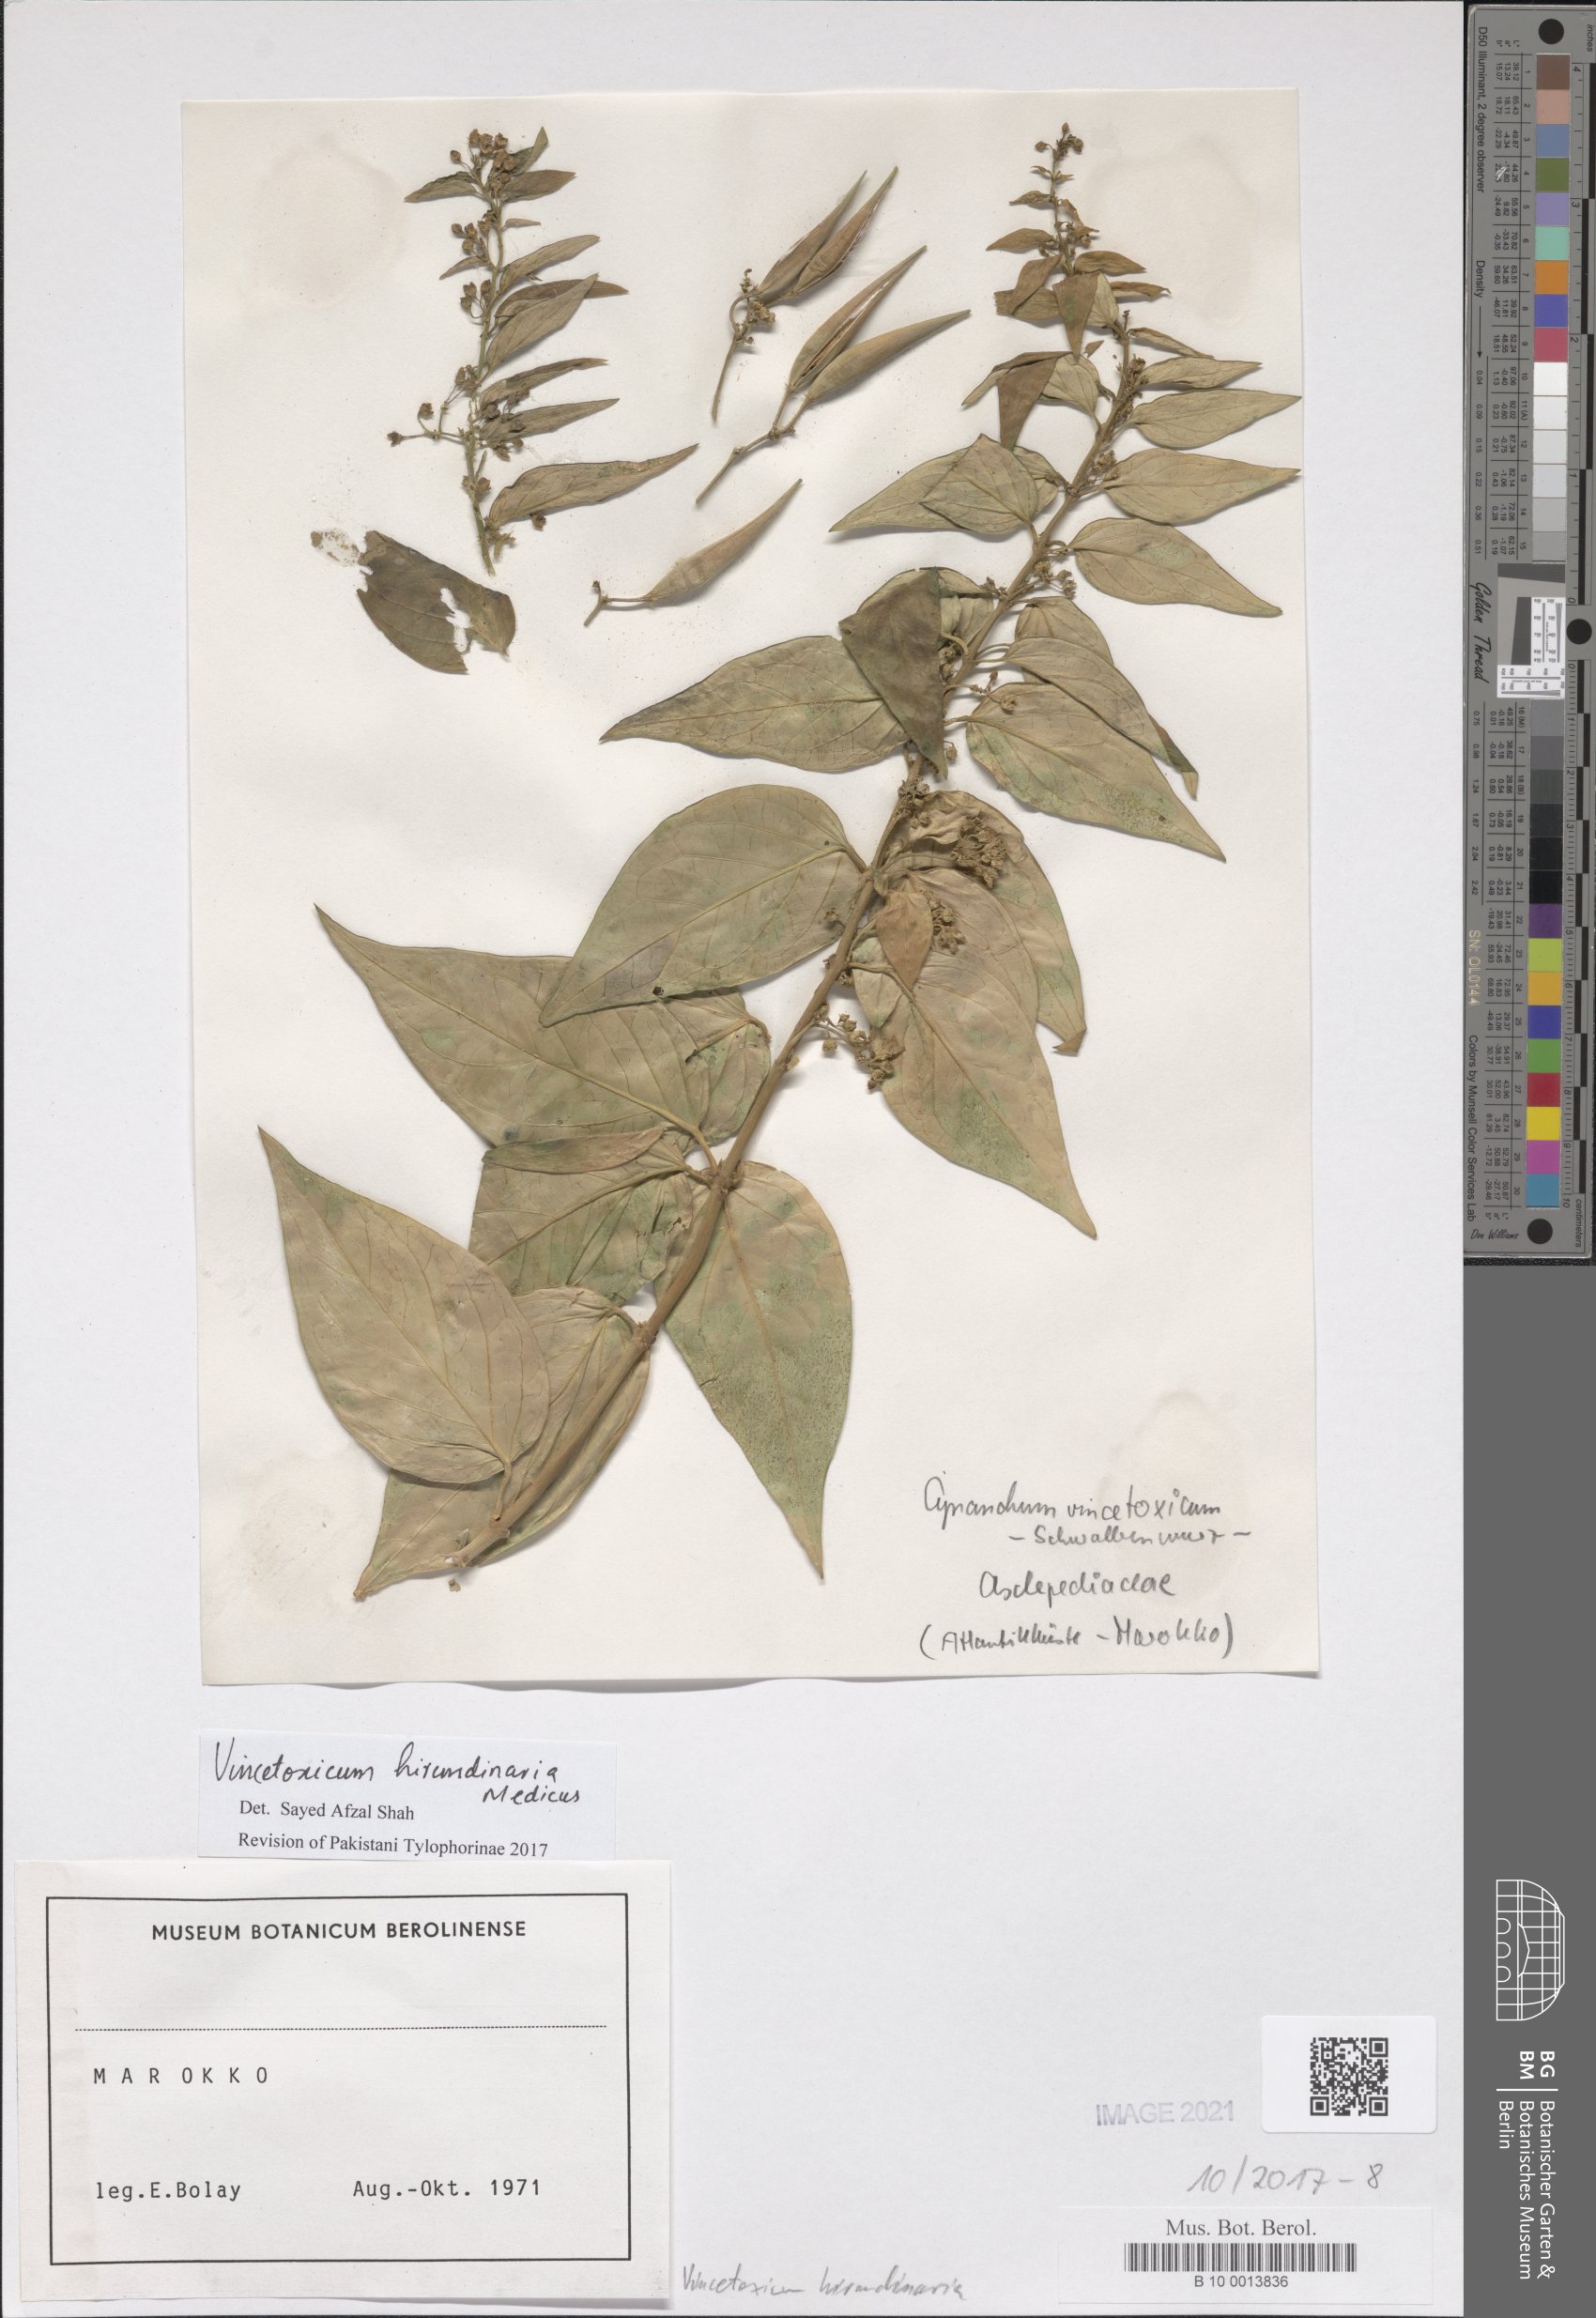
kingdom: Plantae
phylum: Tracheophyta
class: Magnoliopsida
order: Gentianales
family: Apocynaceae
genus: Vincetoxicum
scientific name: Vincetoxicum hirundinaria
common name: White swallowwort
